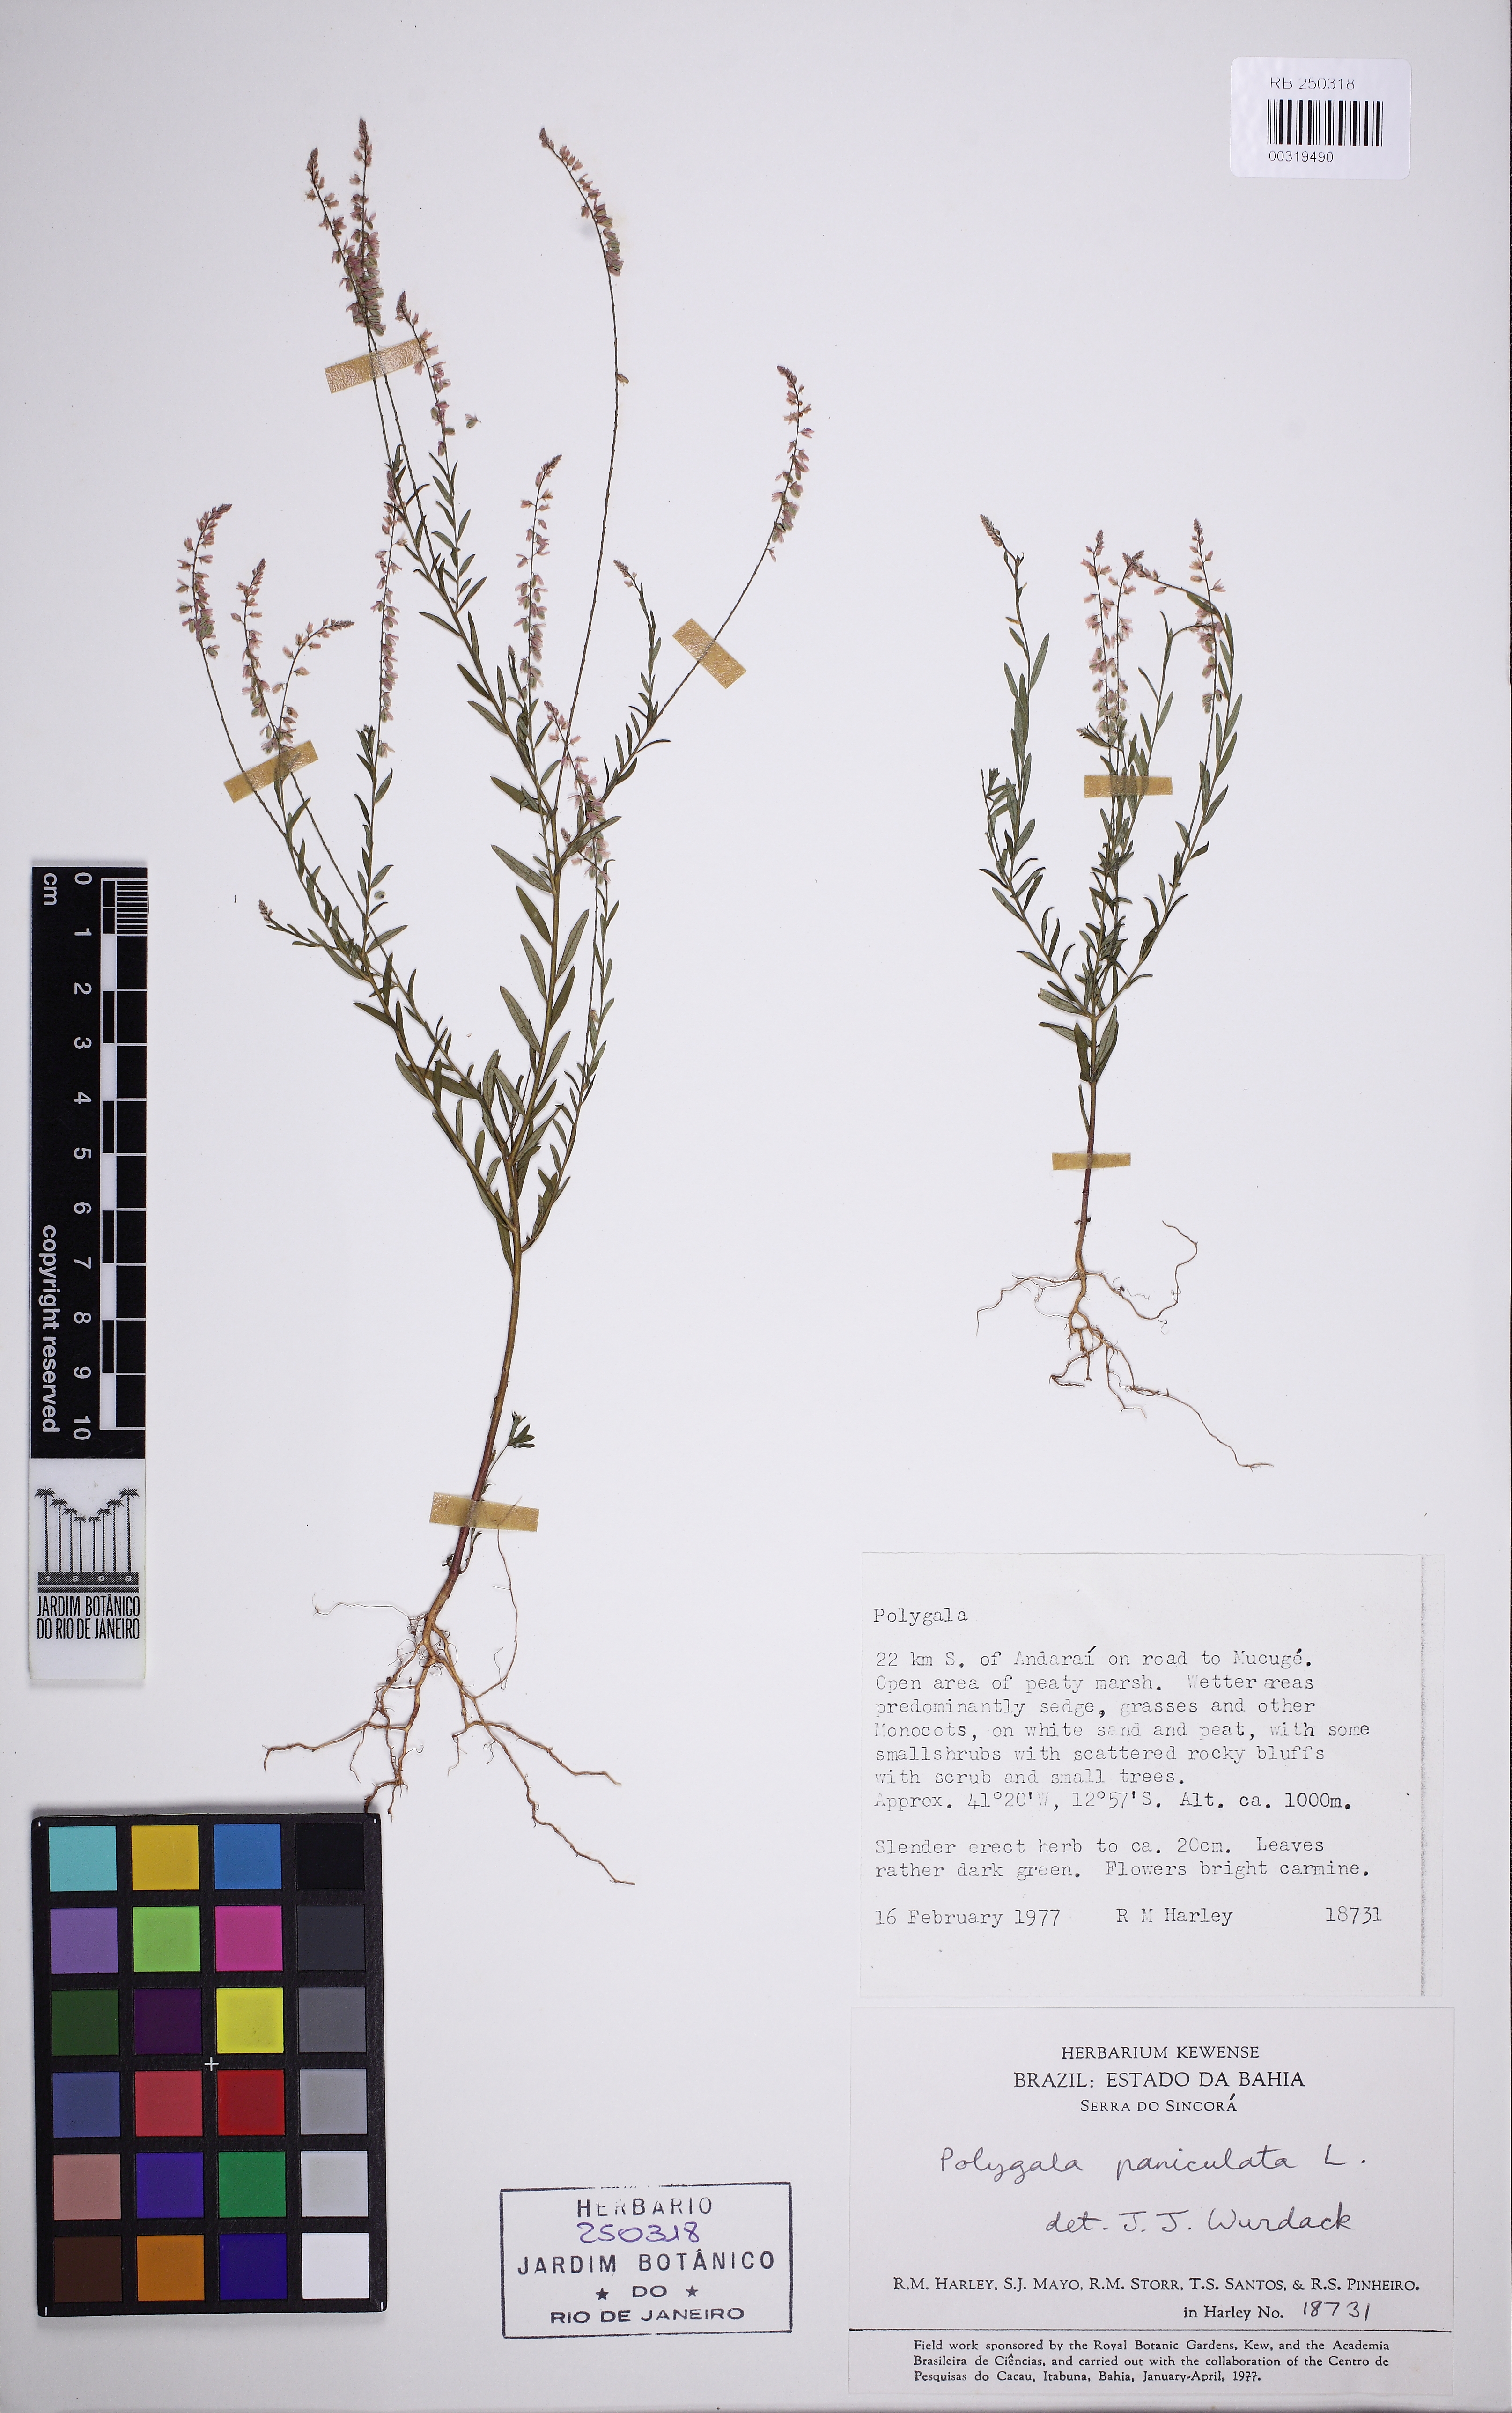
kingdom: Plantae
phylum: Tracheophyta
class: Magnoliopsida
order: Fabales
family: Polygalaceae
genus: Polygala
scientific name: Polygala paniculata
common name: Orosne
